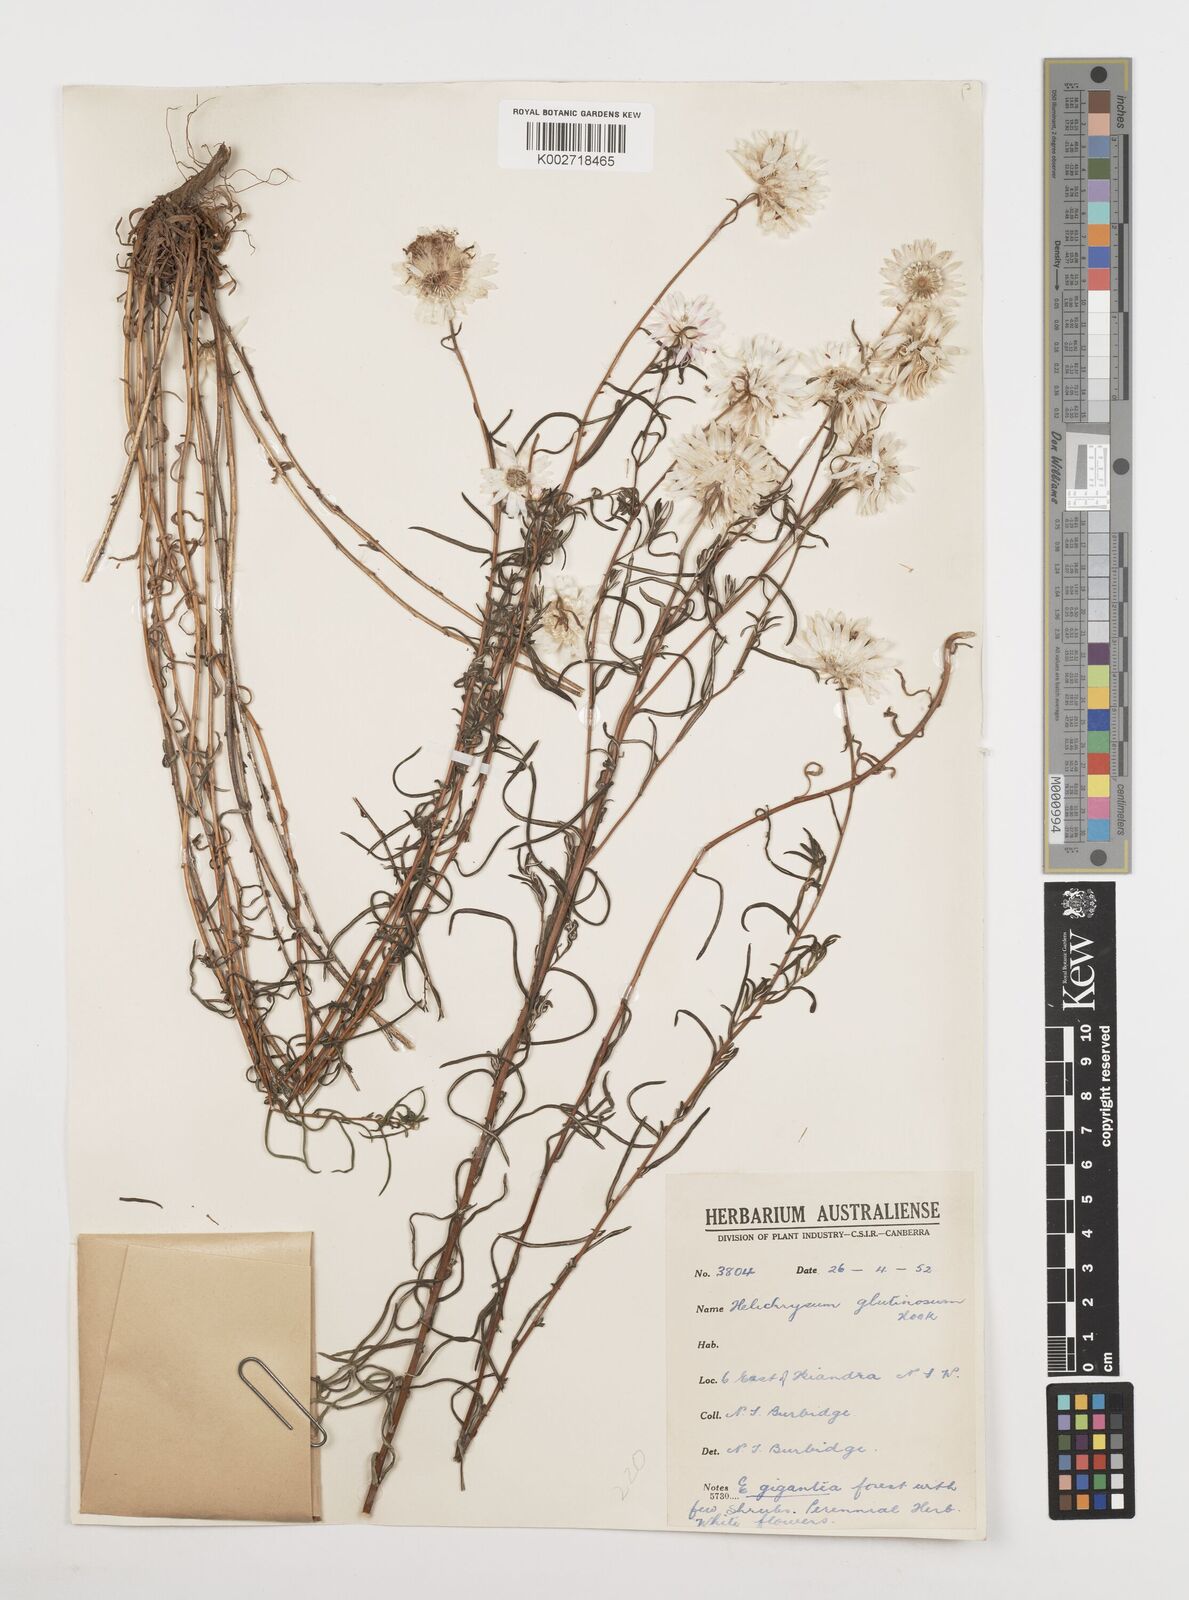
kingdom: Plantae
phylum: Tracheophyta
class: Magnoliopsida
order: Asterales
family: Asteraceae
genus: Coronidium
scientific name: Coronidium glutinosum
